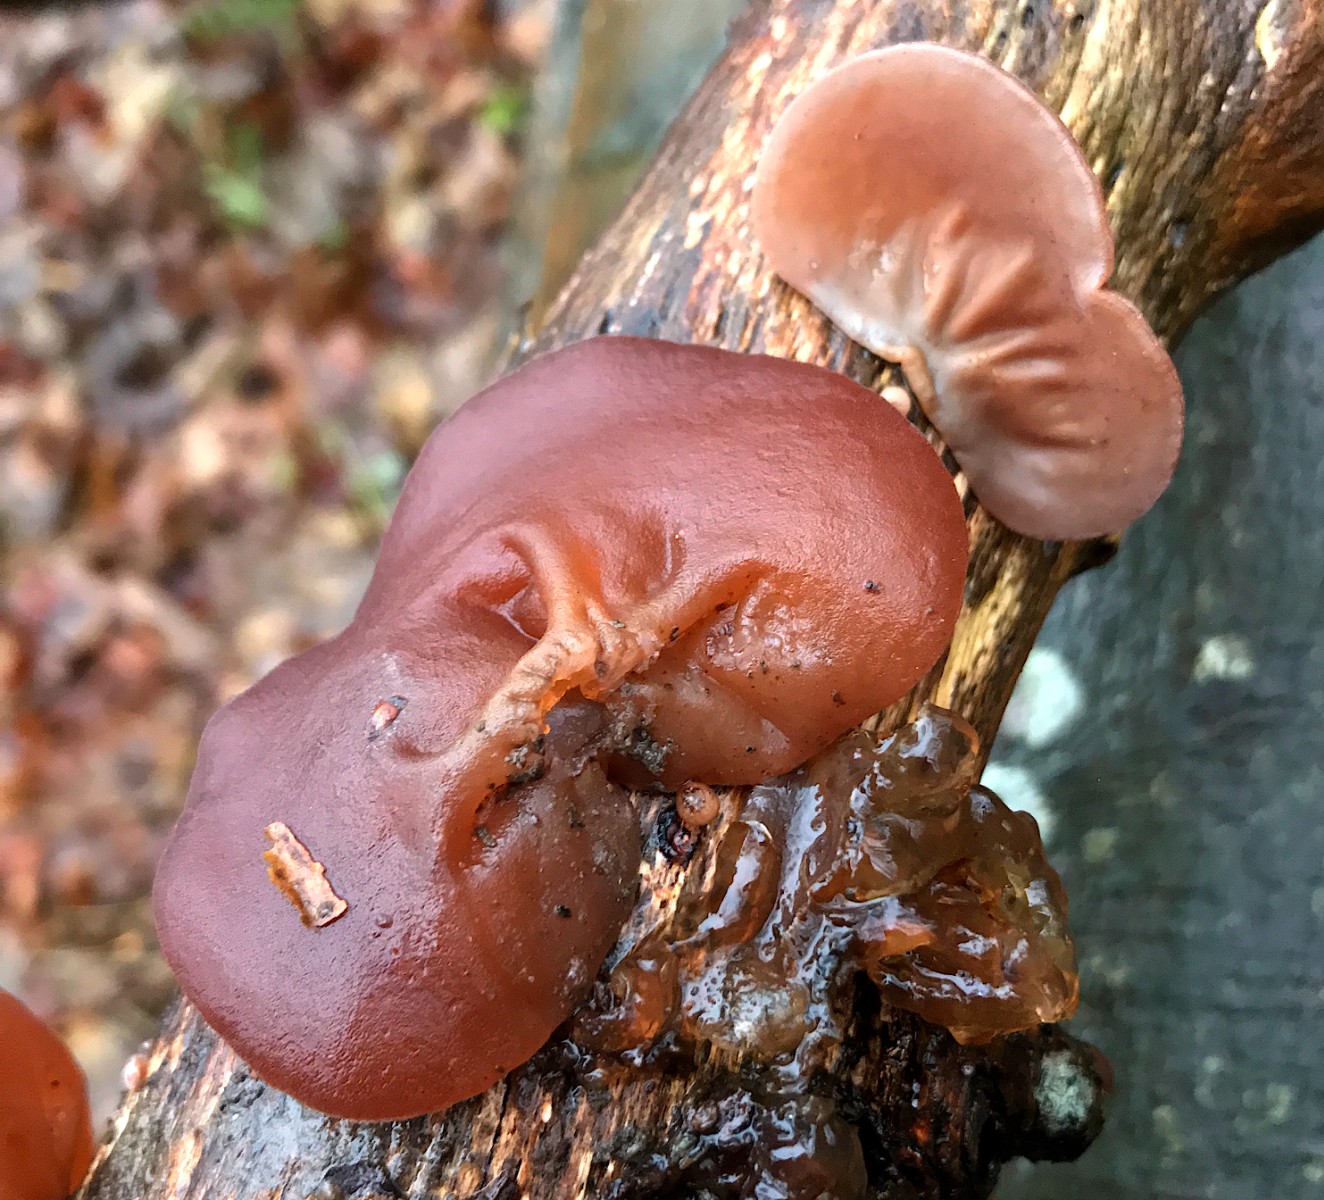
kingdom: Fungi
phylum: Basidiomycota
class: Agaricomycetes
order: Auriculariales
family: Auriculariaceae
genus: Auricularia
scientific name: Auricularia auricula-judae
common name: almindelig judasøre
